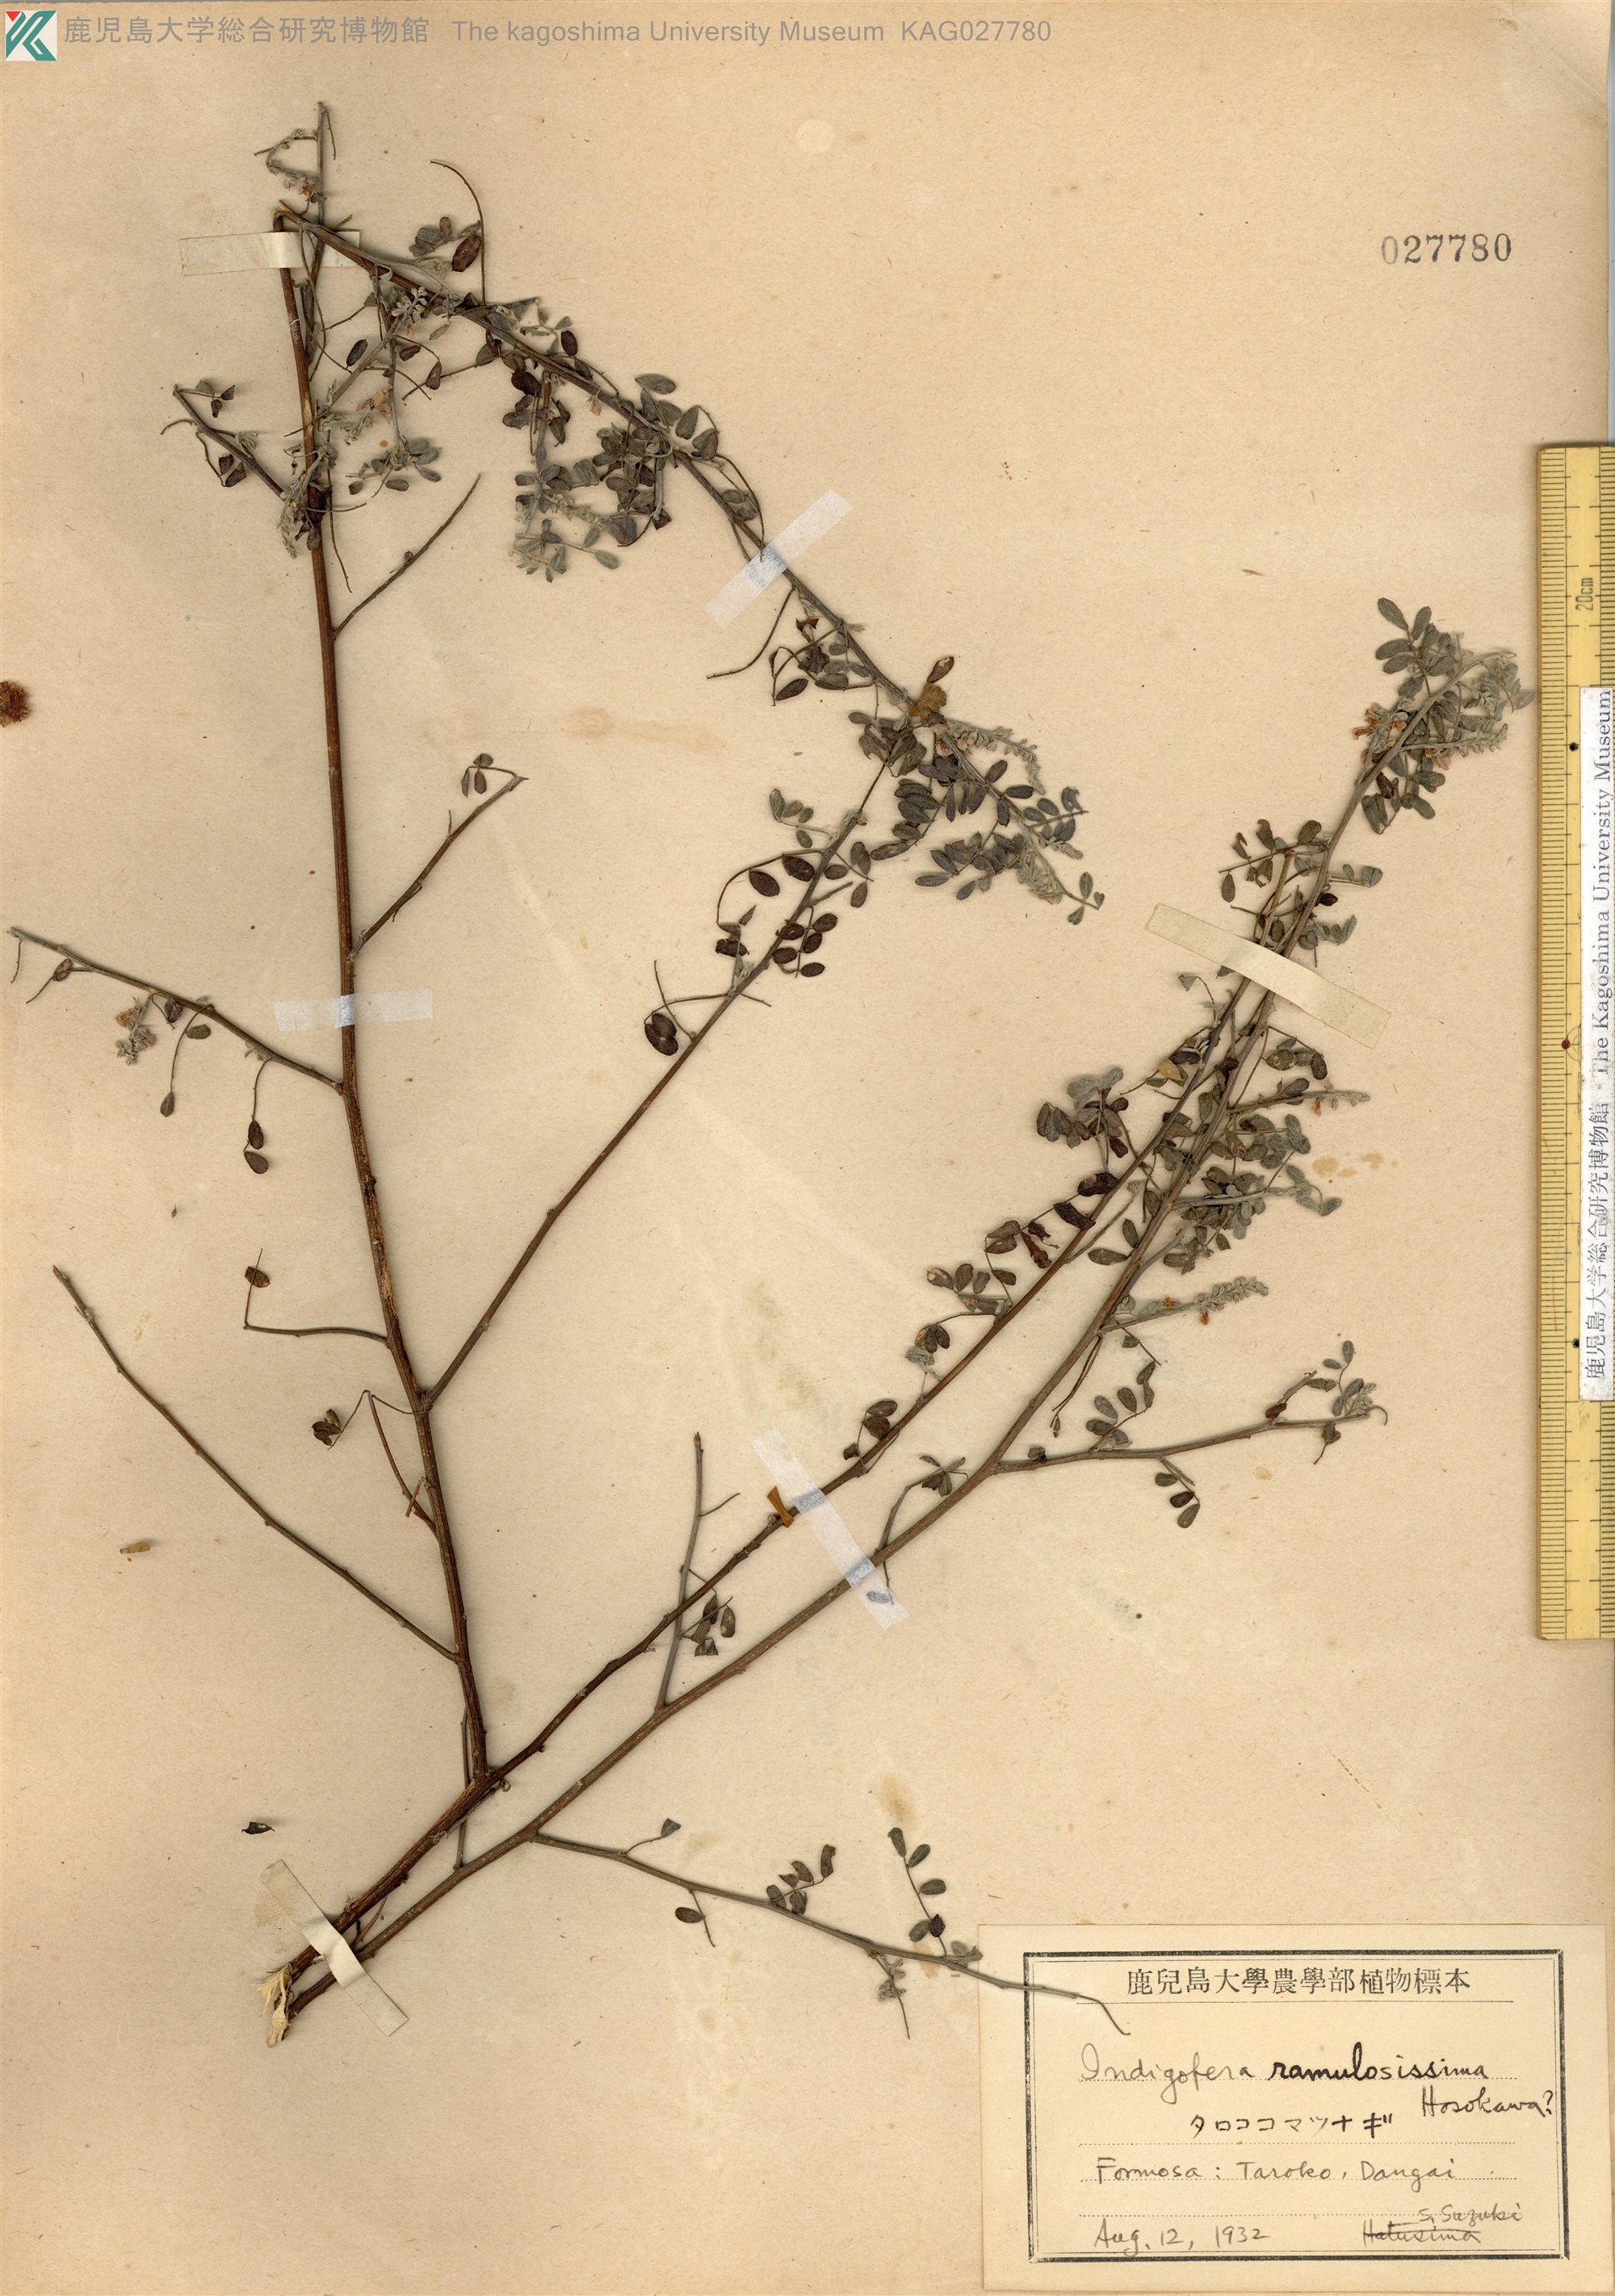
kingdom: Plantae
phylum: Tracheophyta
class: Magnoliopsida
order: Fabales
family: Fabaceae
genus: Indigofera
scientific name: Indigofera ramulosissima
